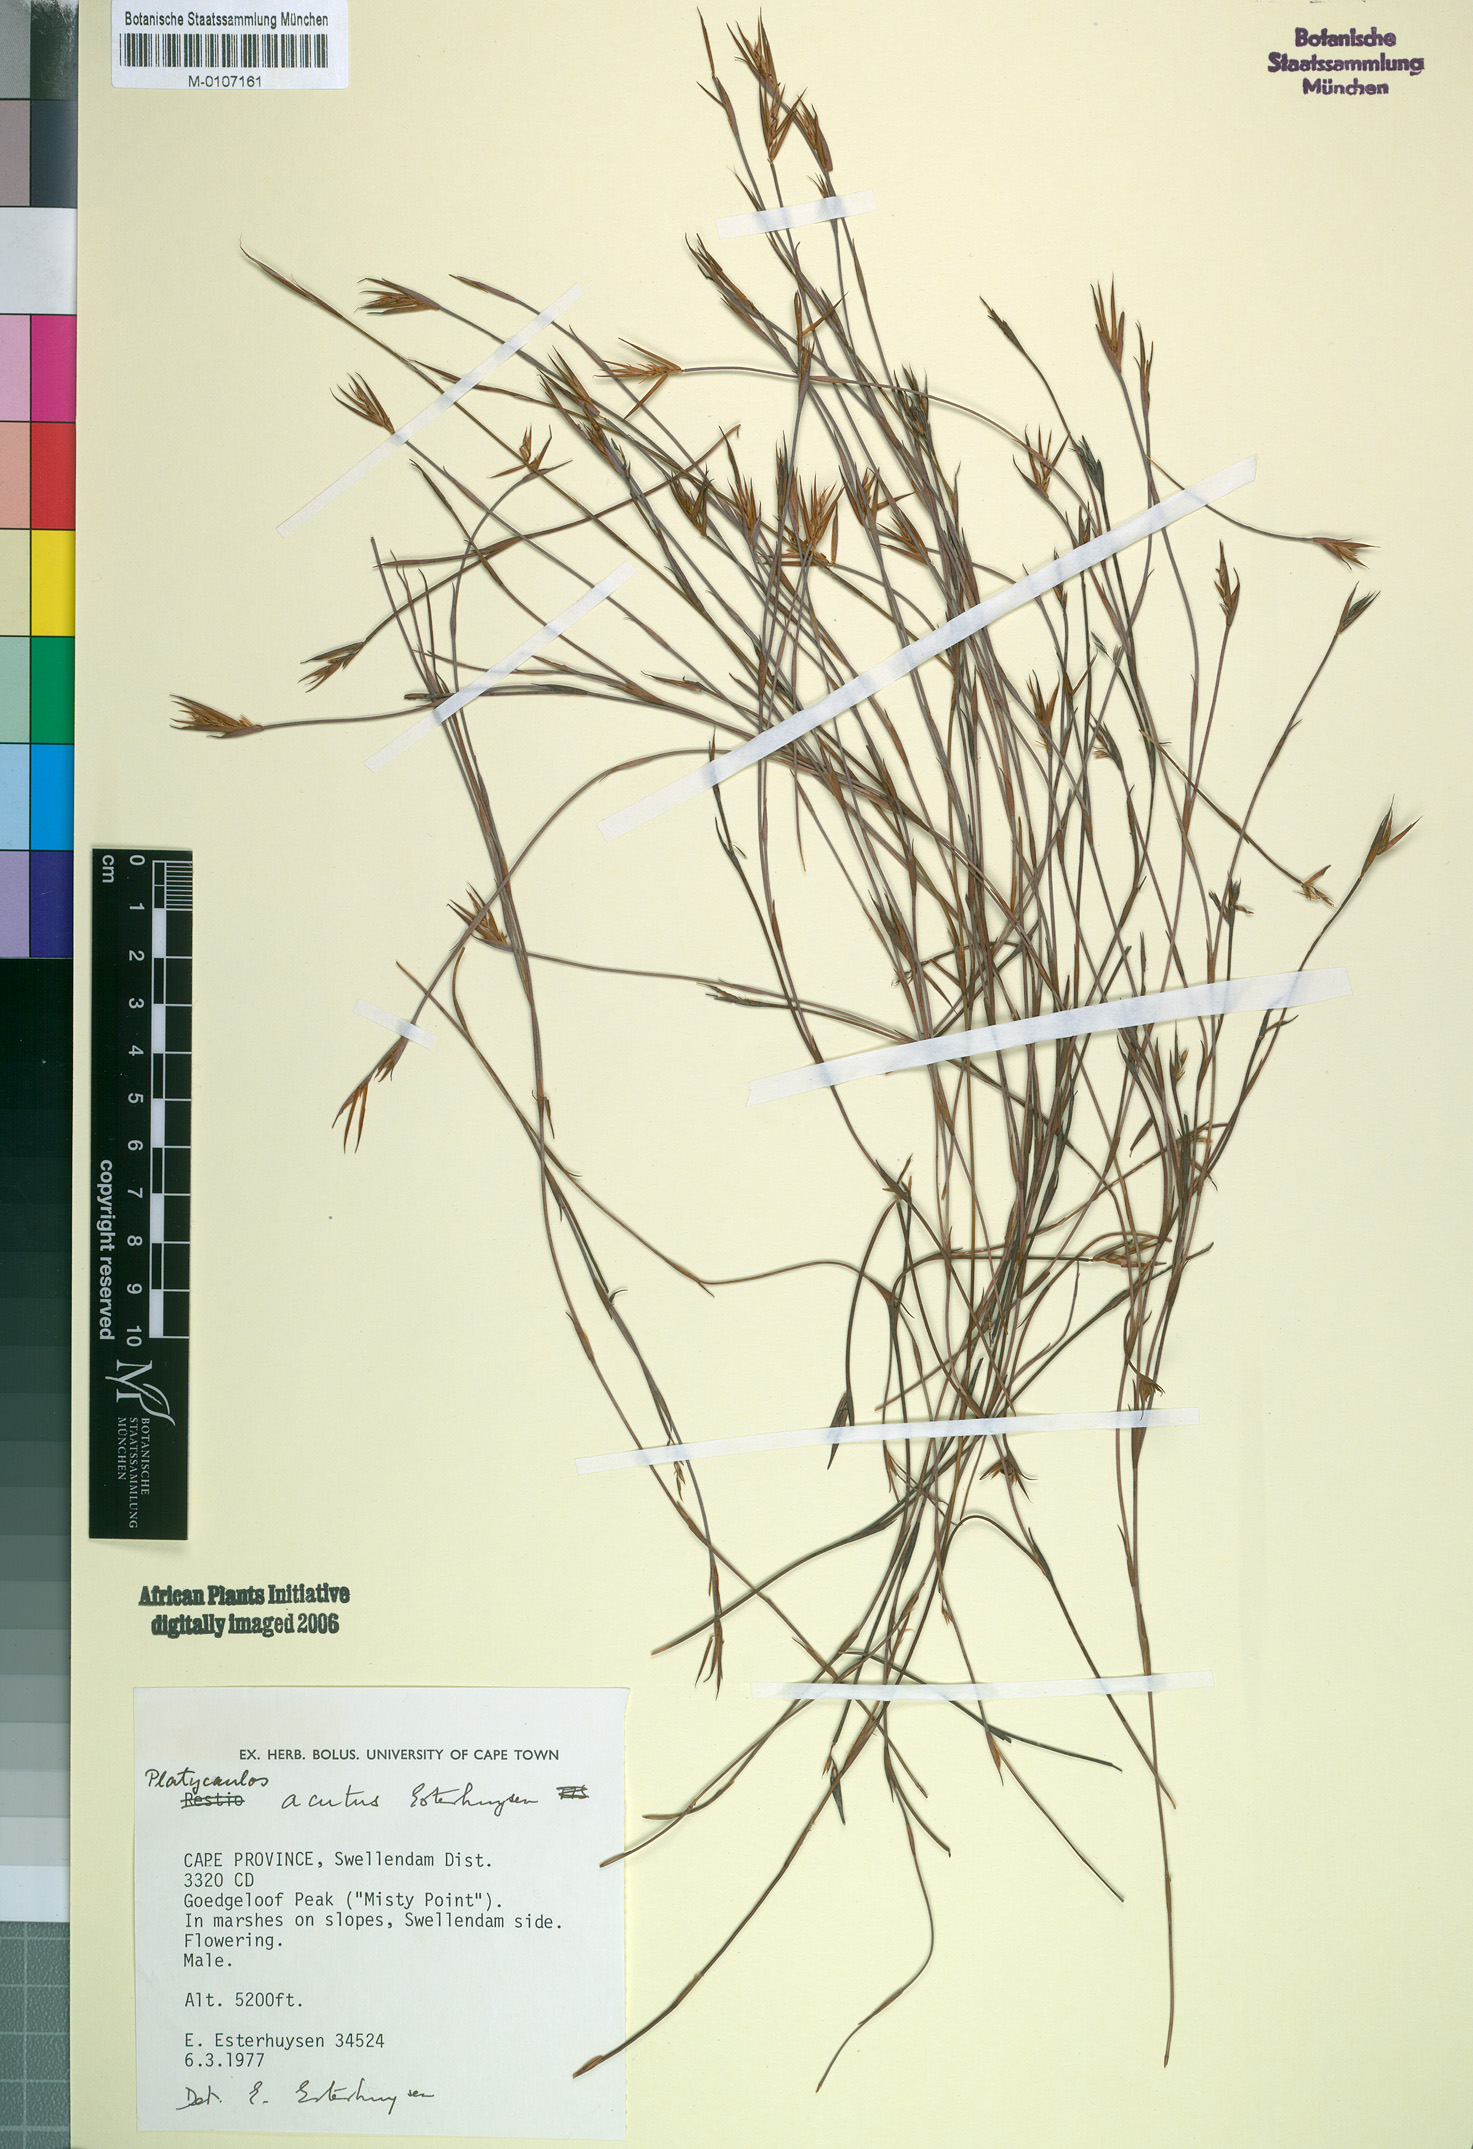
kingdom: Plantae
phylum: Tracheophyta
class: Liliopsida
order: Poales
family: Restionaceae
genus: Platycaulos
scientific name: Platycaulos acutus
